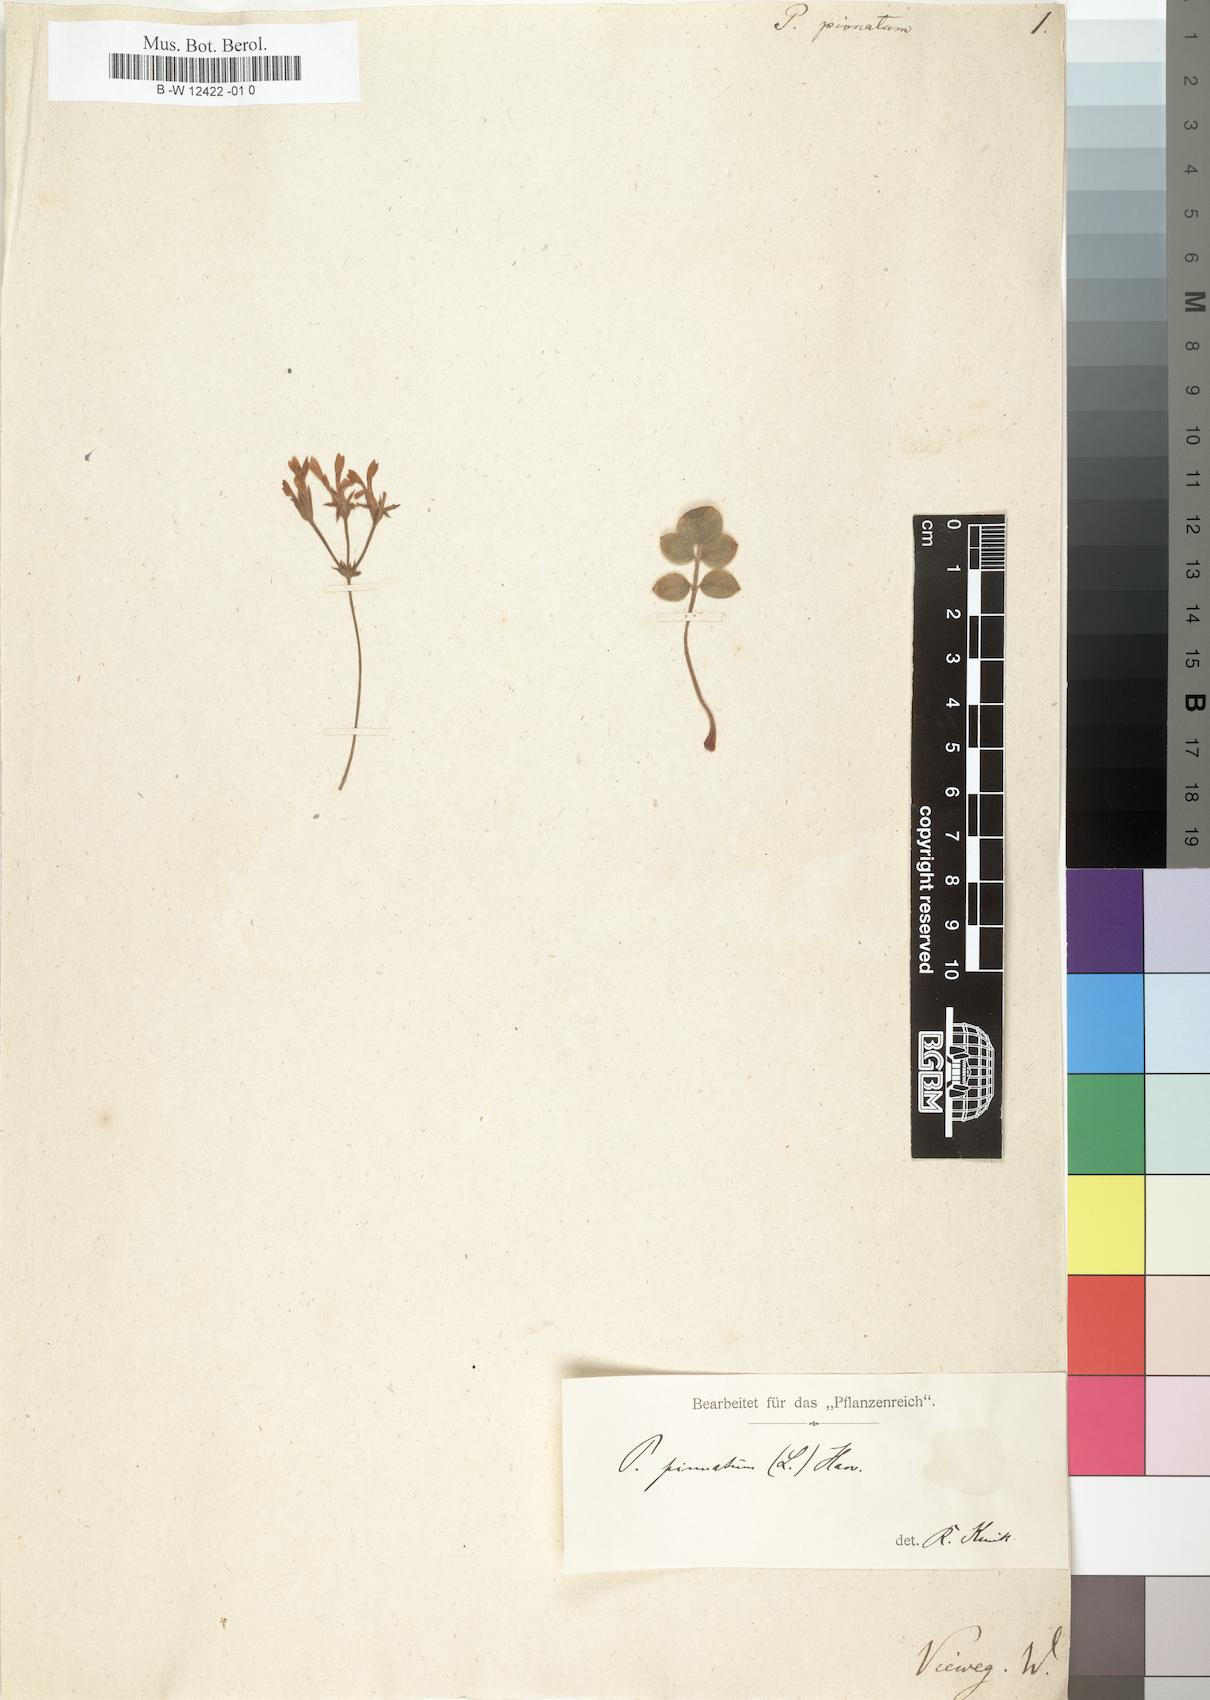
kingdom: Plantae
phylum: Tracheophyta
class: Magnoliopsida
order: Geraniales
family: Geraniaceae
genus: Pelargonium
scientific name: Pelargonium pinnatum
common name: Pinnated pelargonium
